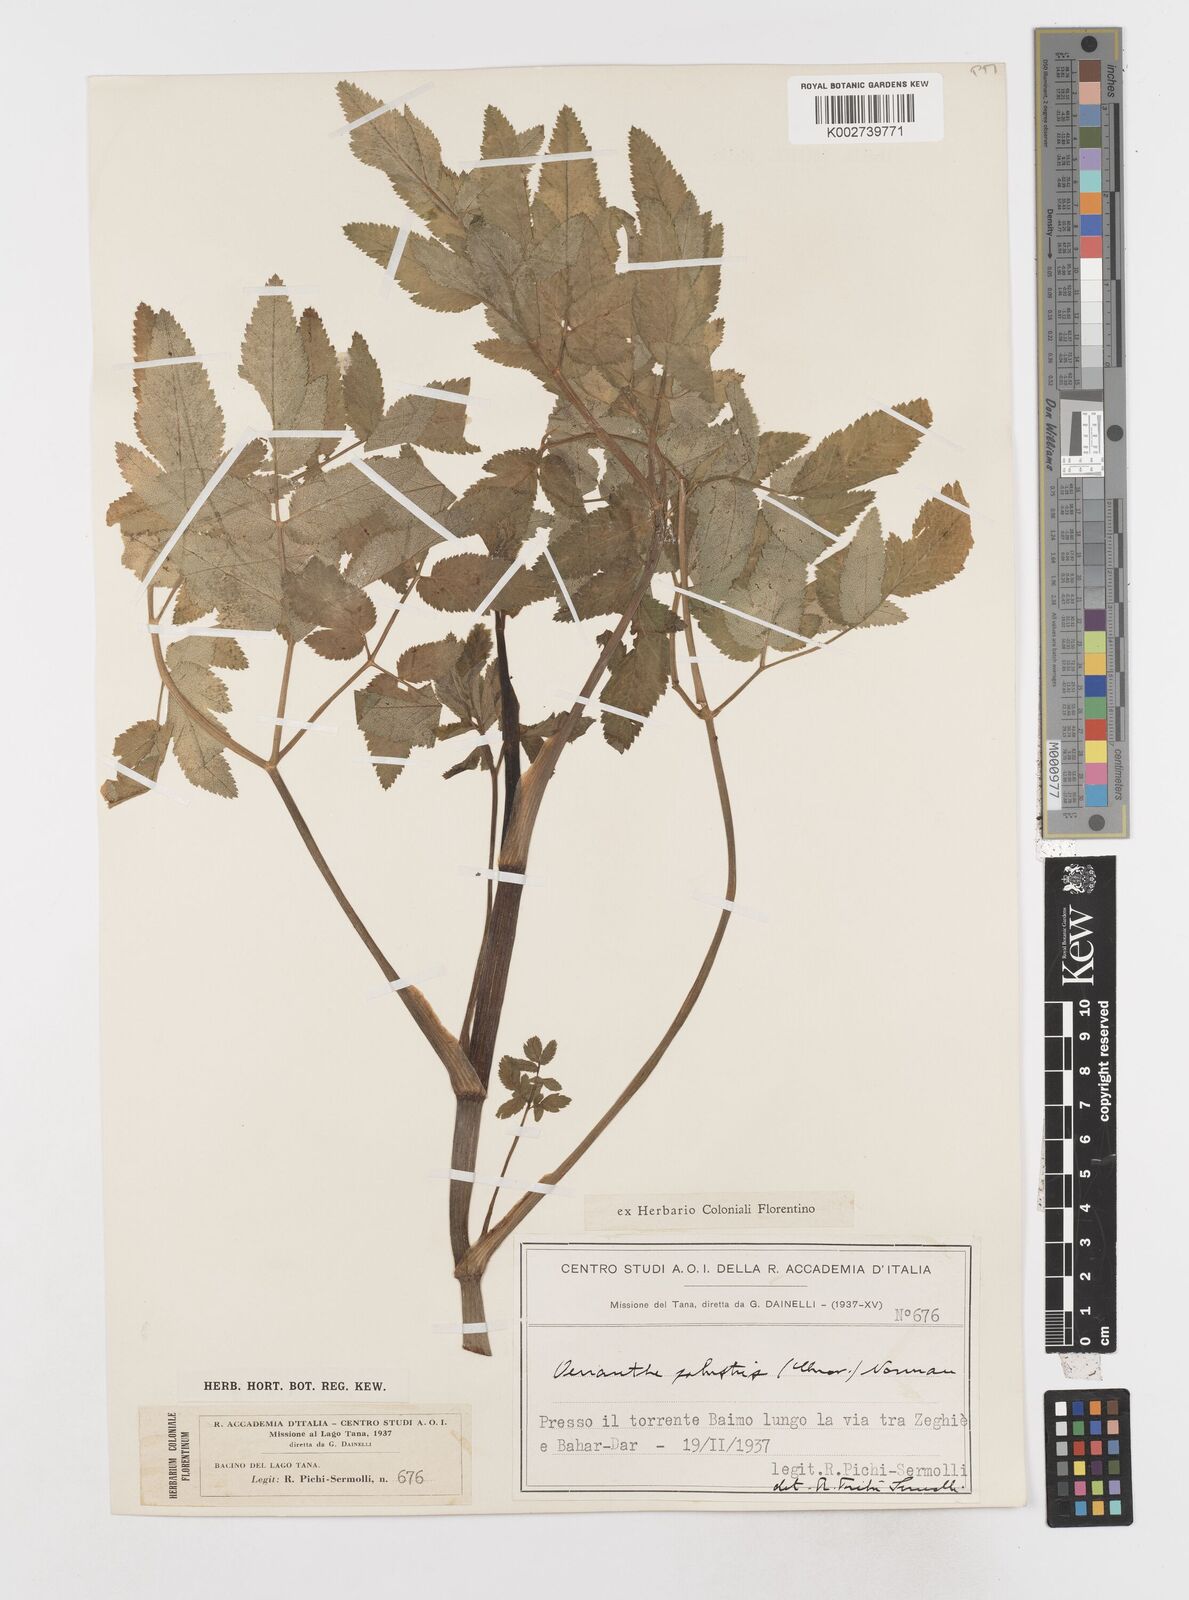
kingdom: Plantae
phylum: Tracheophyta
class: Magnoliopsida
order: Apiales
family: Apiaceae
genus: Oenanthe
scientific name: Oenanthe palustris
